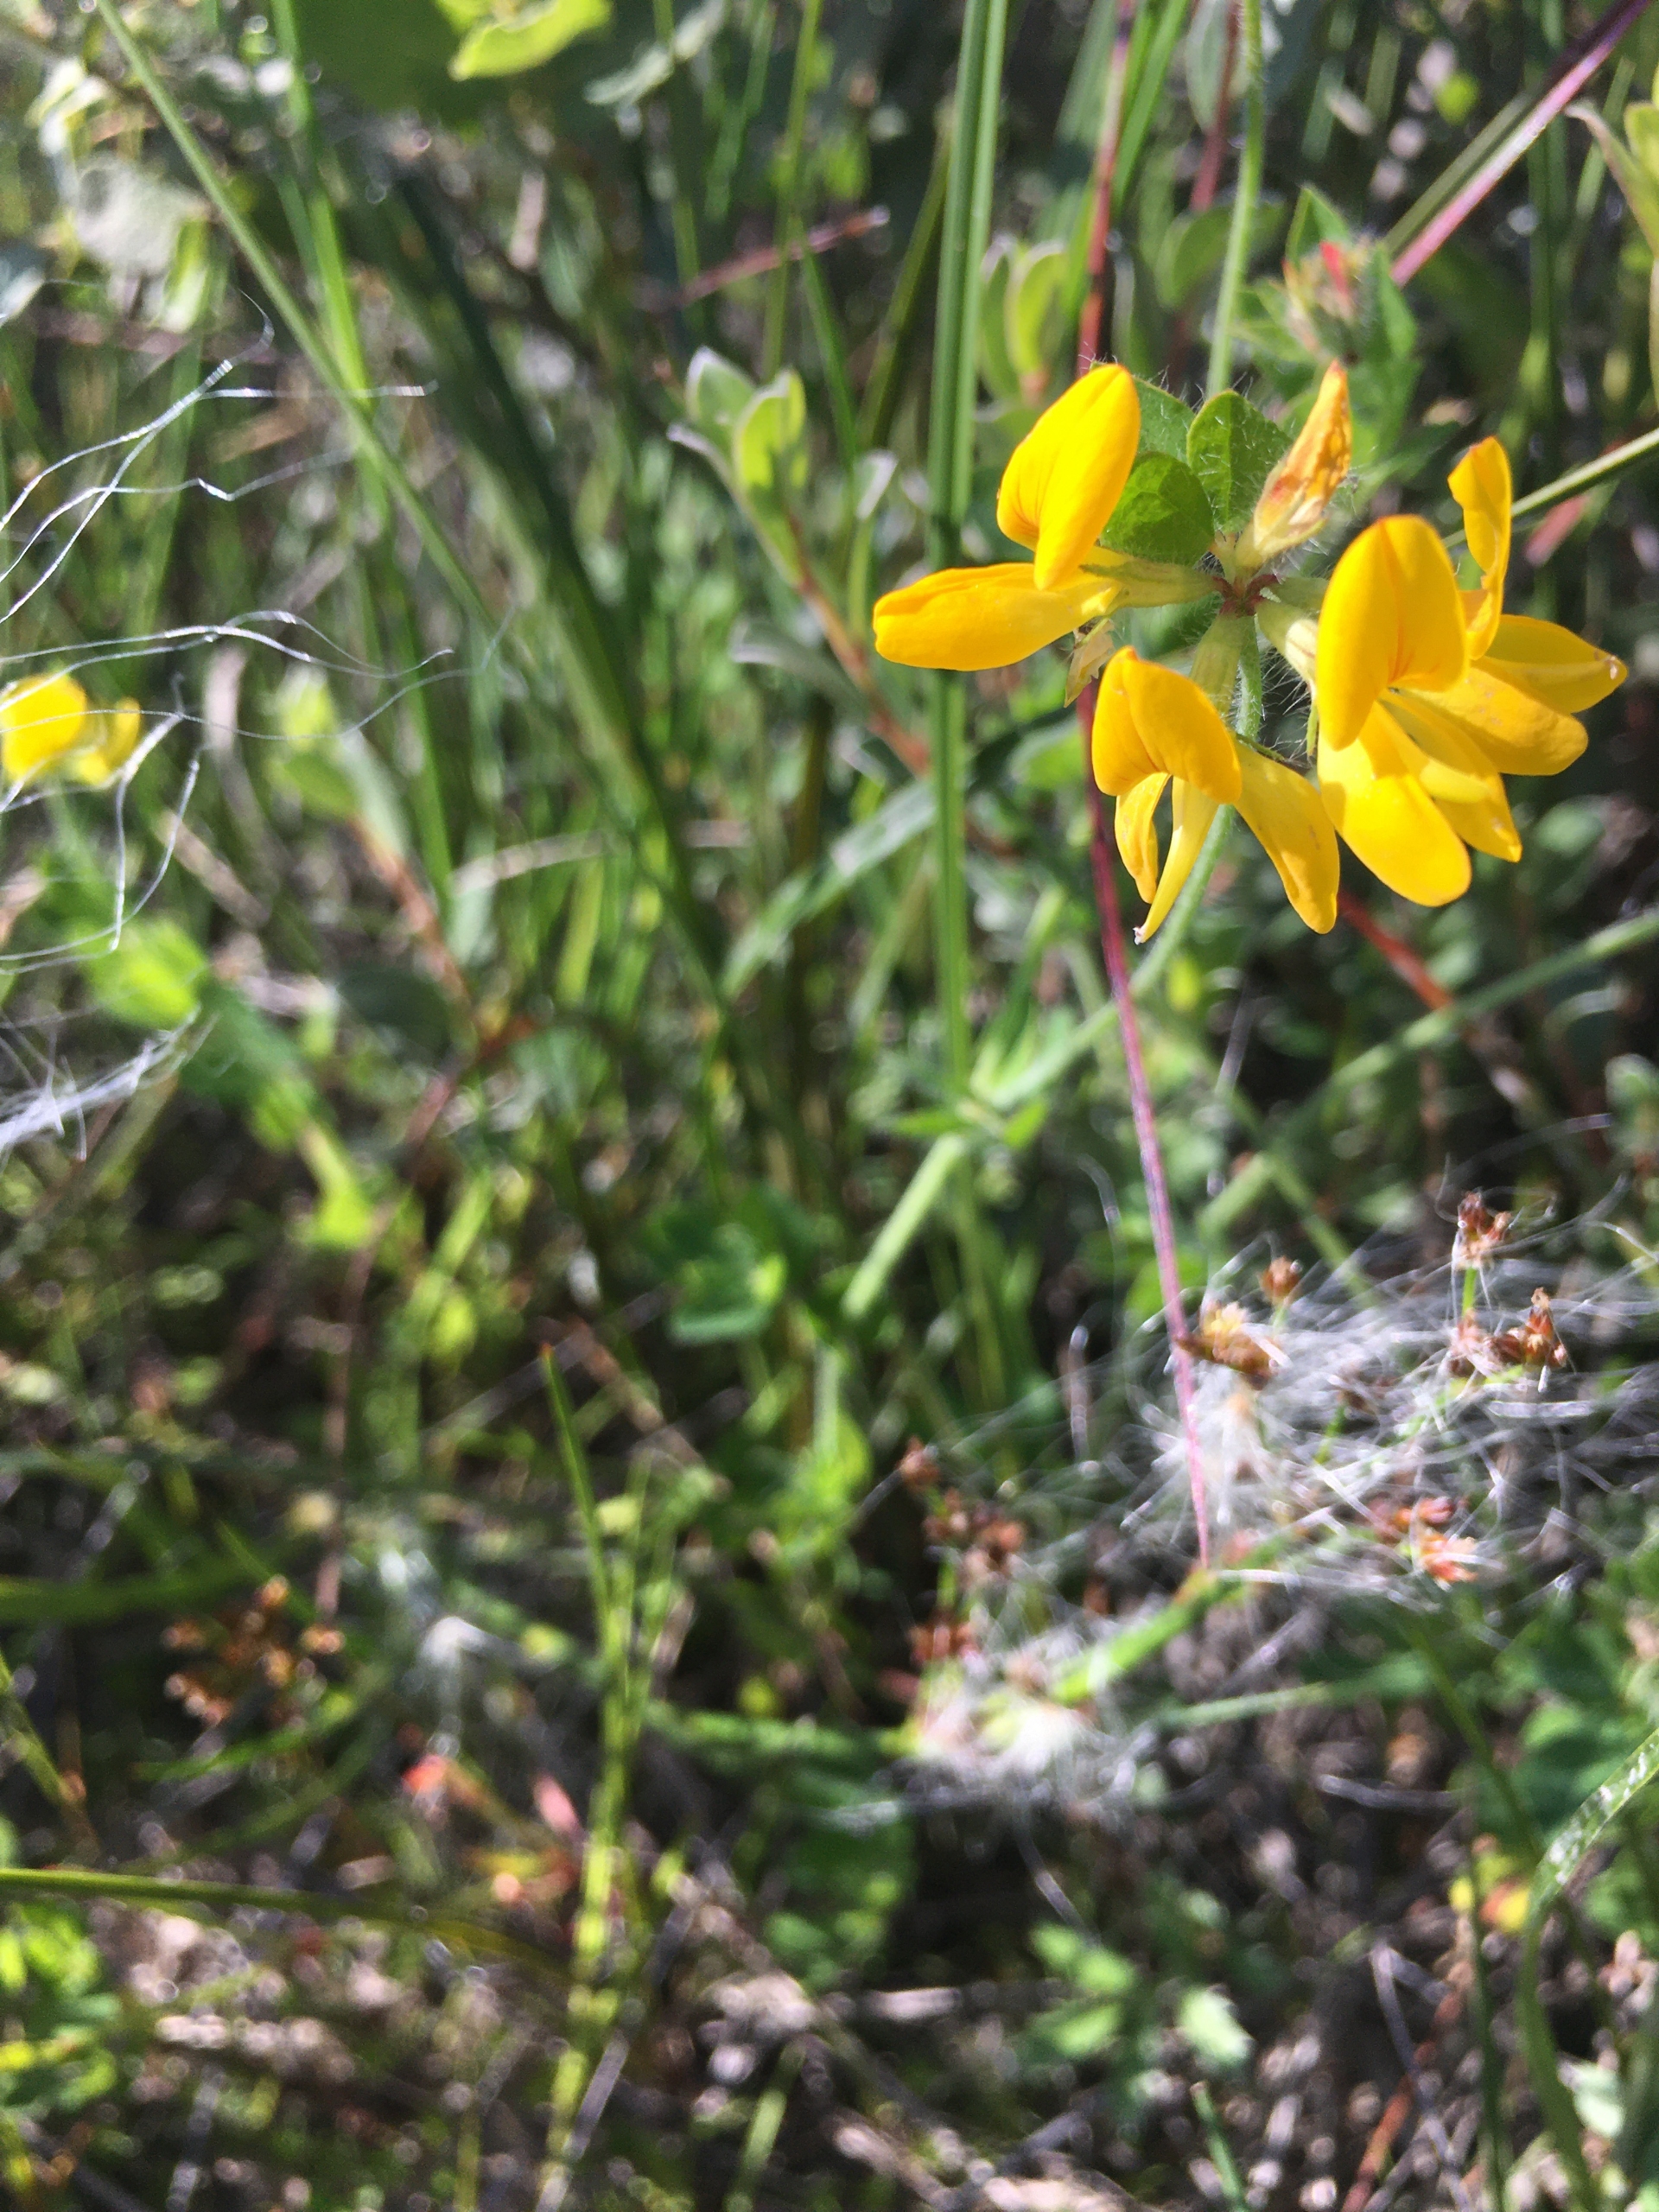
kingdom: Plantae
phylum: Tracheophyta
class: Magnoliopsida
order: Fabales
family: Fabaceae
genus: Lotus
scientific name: Lotus pedunculatus
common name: Sump-kællingetand
